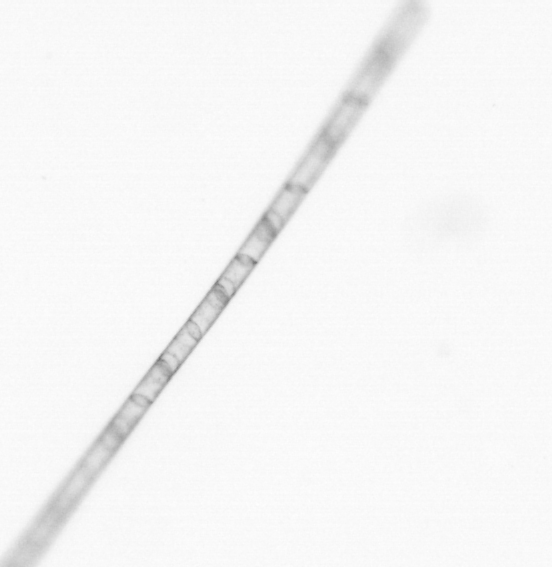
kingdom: Chromista
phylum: Ochrophyta
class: Bacillariophyceae
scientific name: Bacillariophyceae
